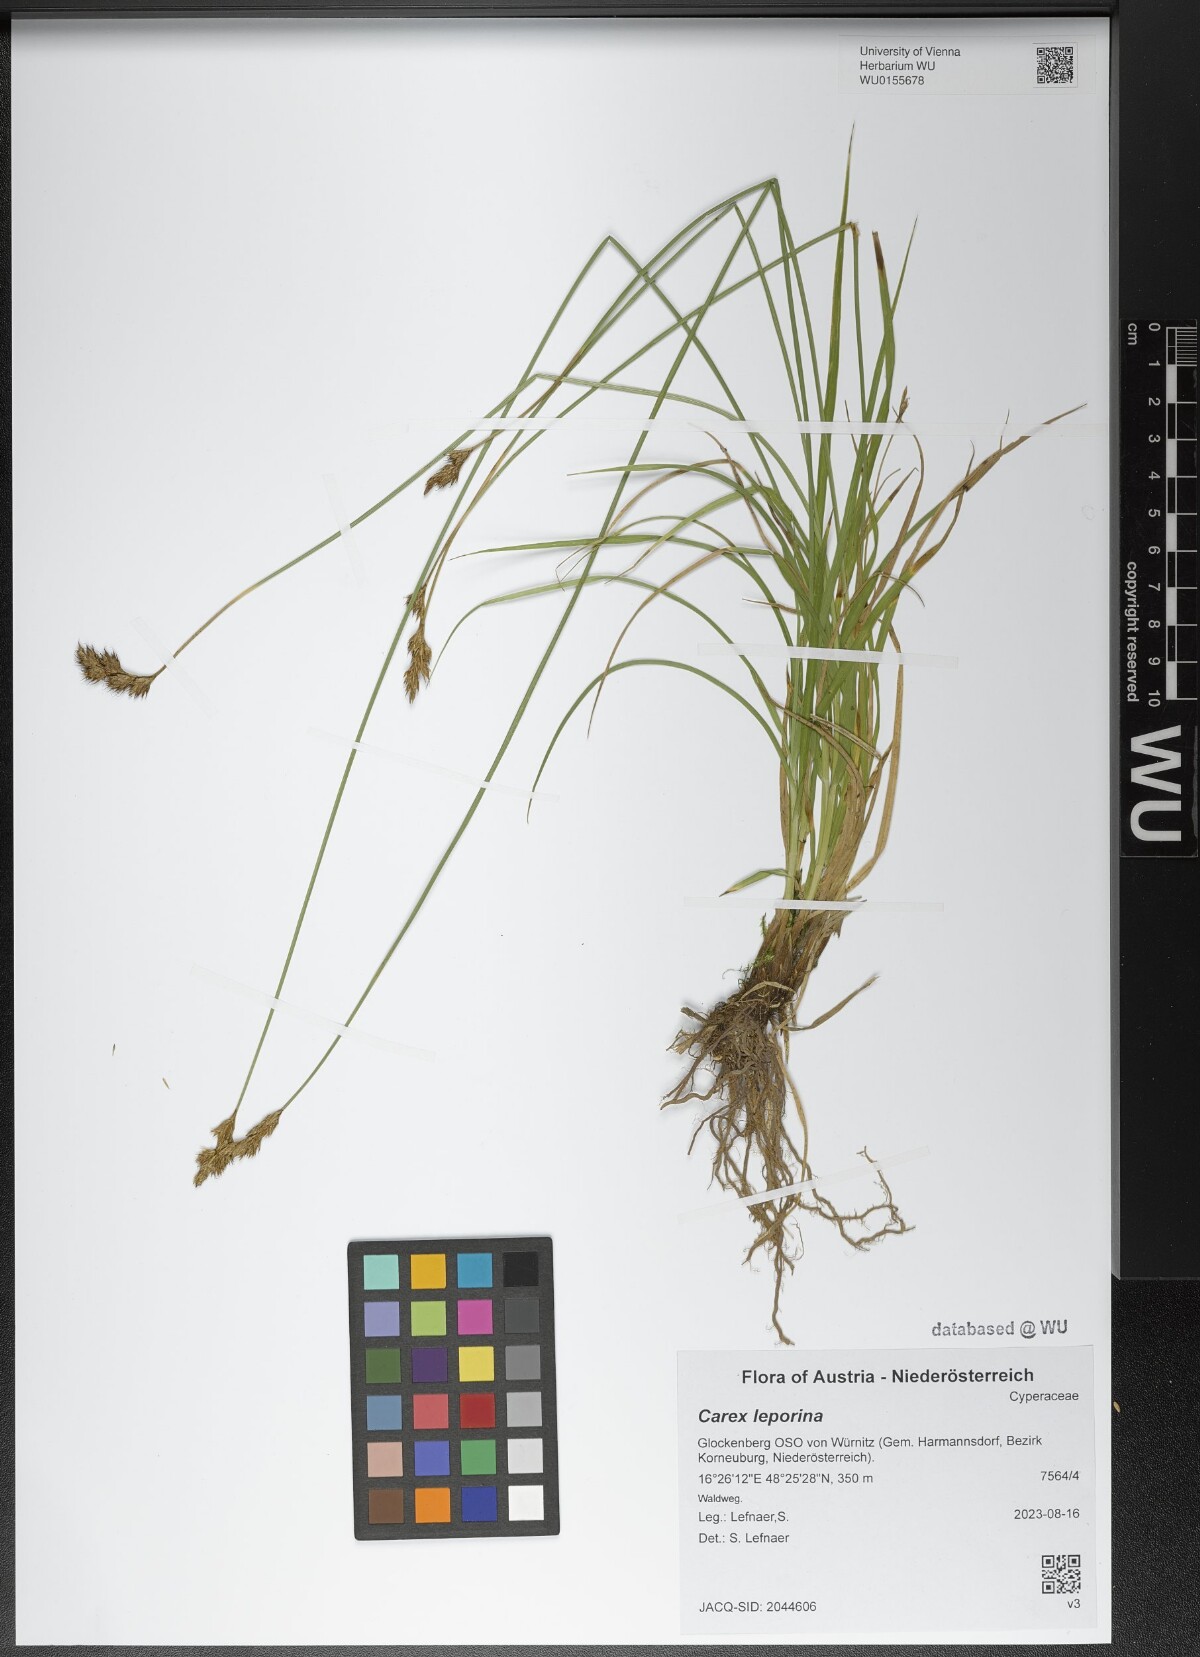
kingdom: Plantae
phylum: Tracheophyta
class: Liliopsida
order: Poales
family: Cyperaceae
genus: Carex
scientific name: Carex leporina
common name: Oval sedge
